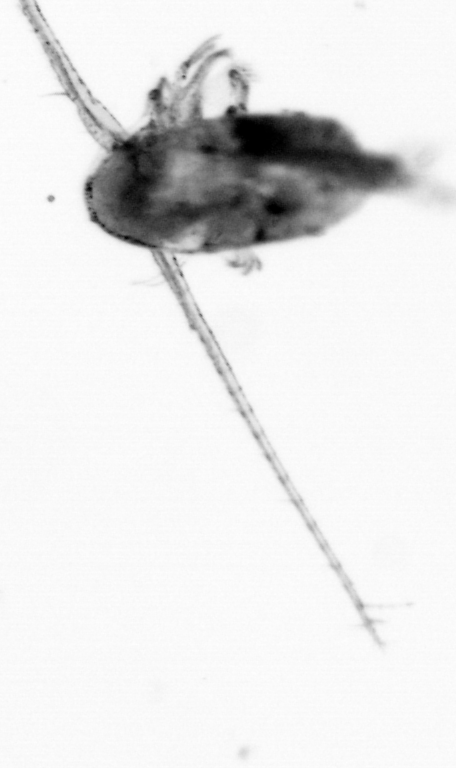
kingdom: Animalia
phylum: Arthropoda
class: Copepoda
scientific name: Copepoda
